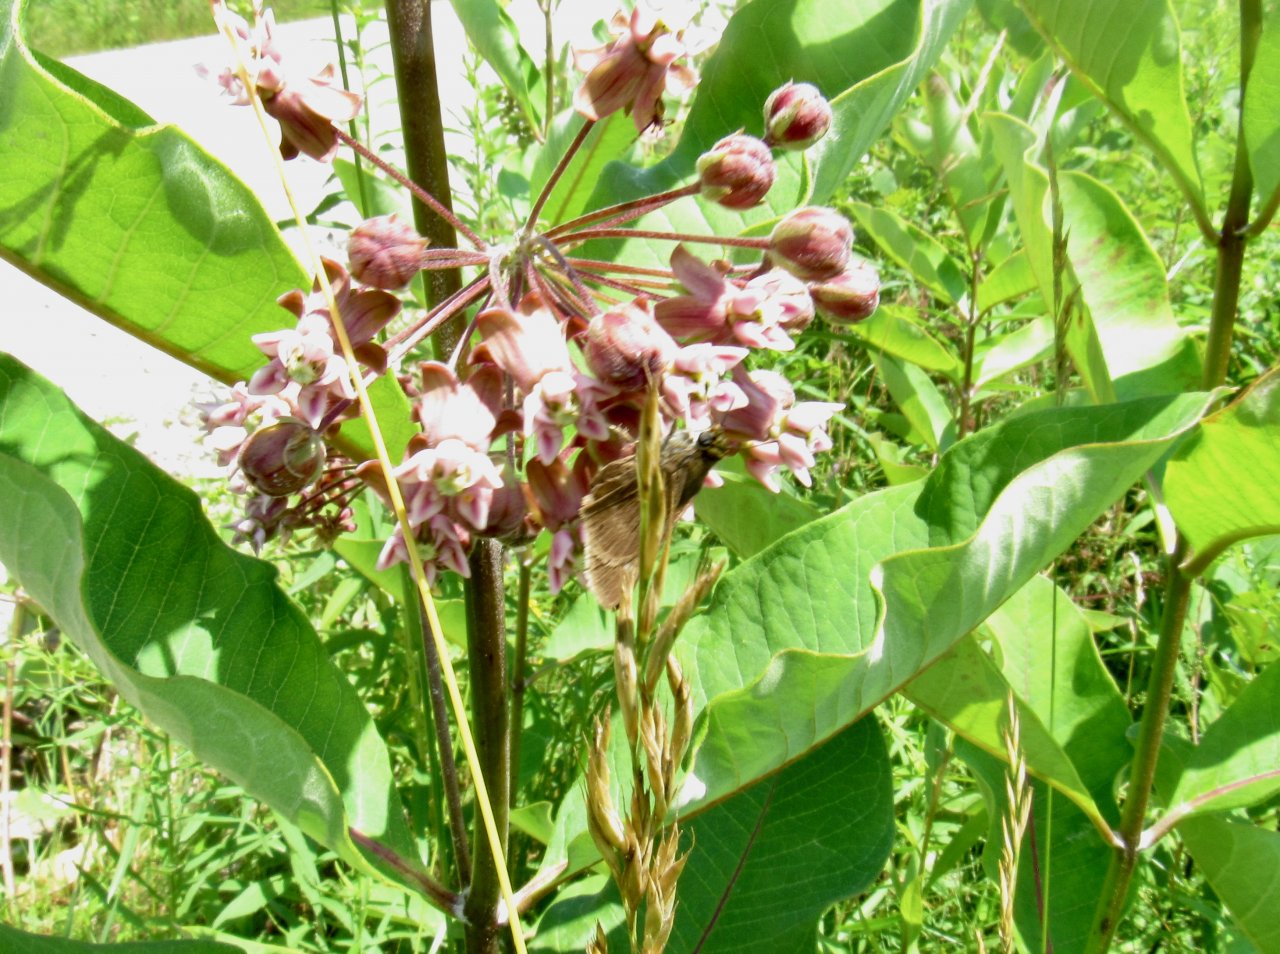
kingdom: Animalia
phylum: Arthropoda
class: Insecta
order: Lepidoptera
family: Hesperiidae
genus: Euphyes
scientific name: Euphyes vestris
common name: Dun Skipper
